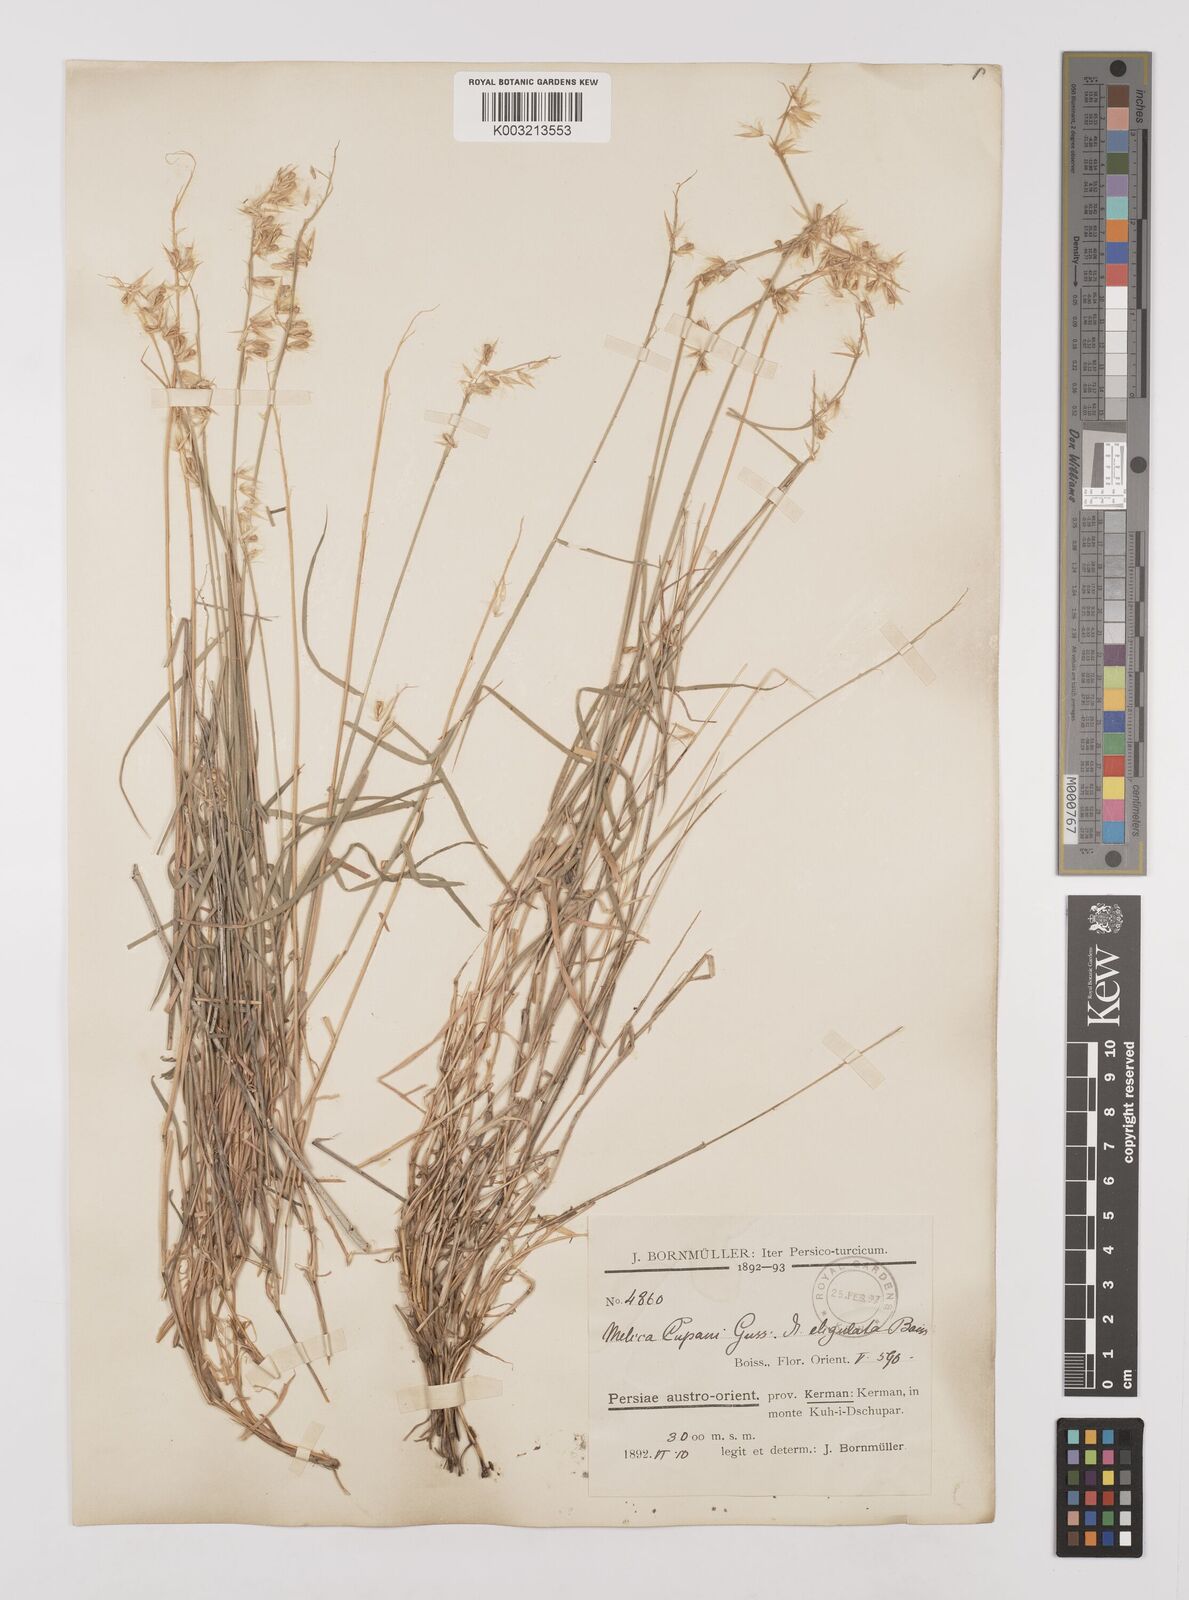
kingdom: Plantae
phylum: Tracheophyta
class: Liliopsida
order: Poales
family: Poaceae
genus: Melica
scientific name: Melica persica
